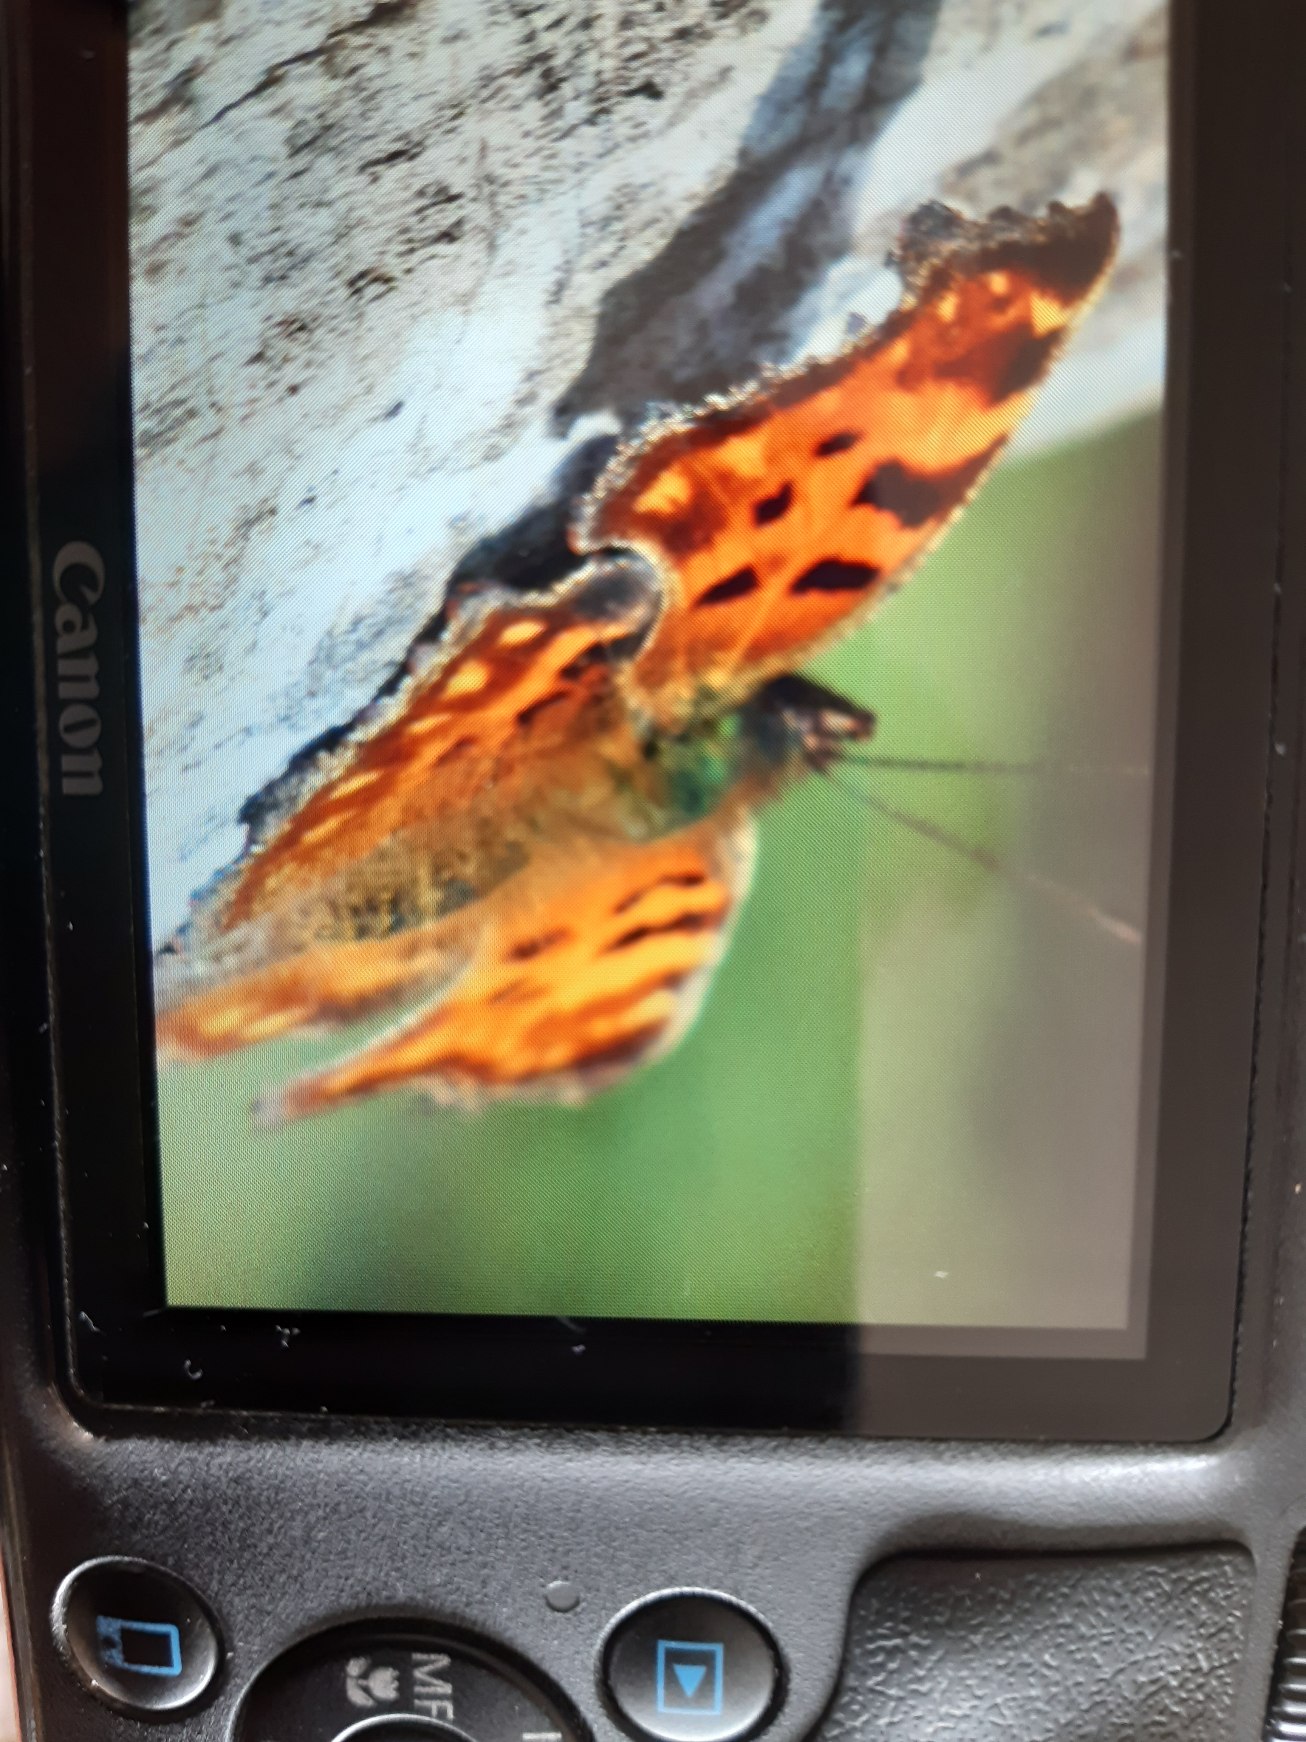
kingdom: Animalia
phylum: Arthropoda
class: Insecta
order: Lepidoptera
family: Nymphalidae
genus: Polygonia
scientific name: Polygonia c-album
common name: Det hvide C
